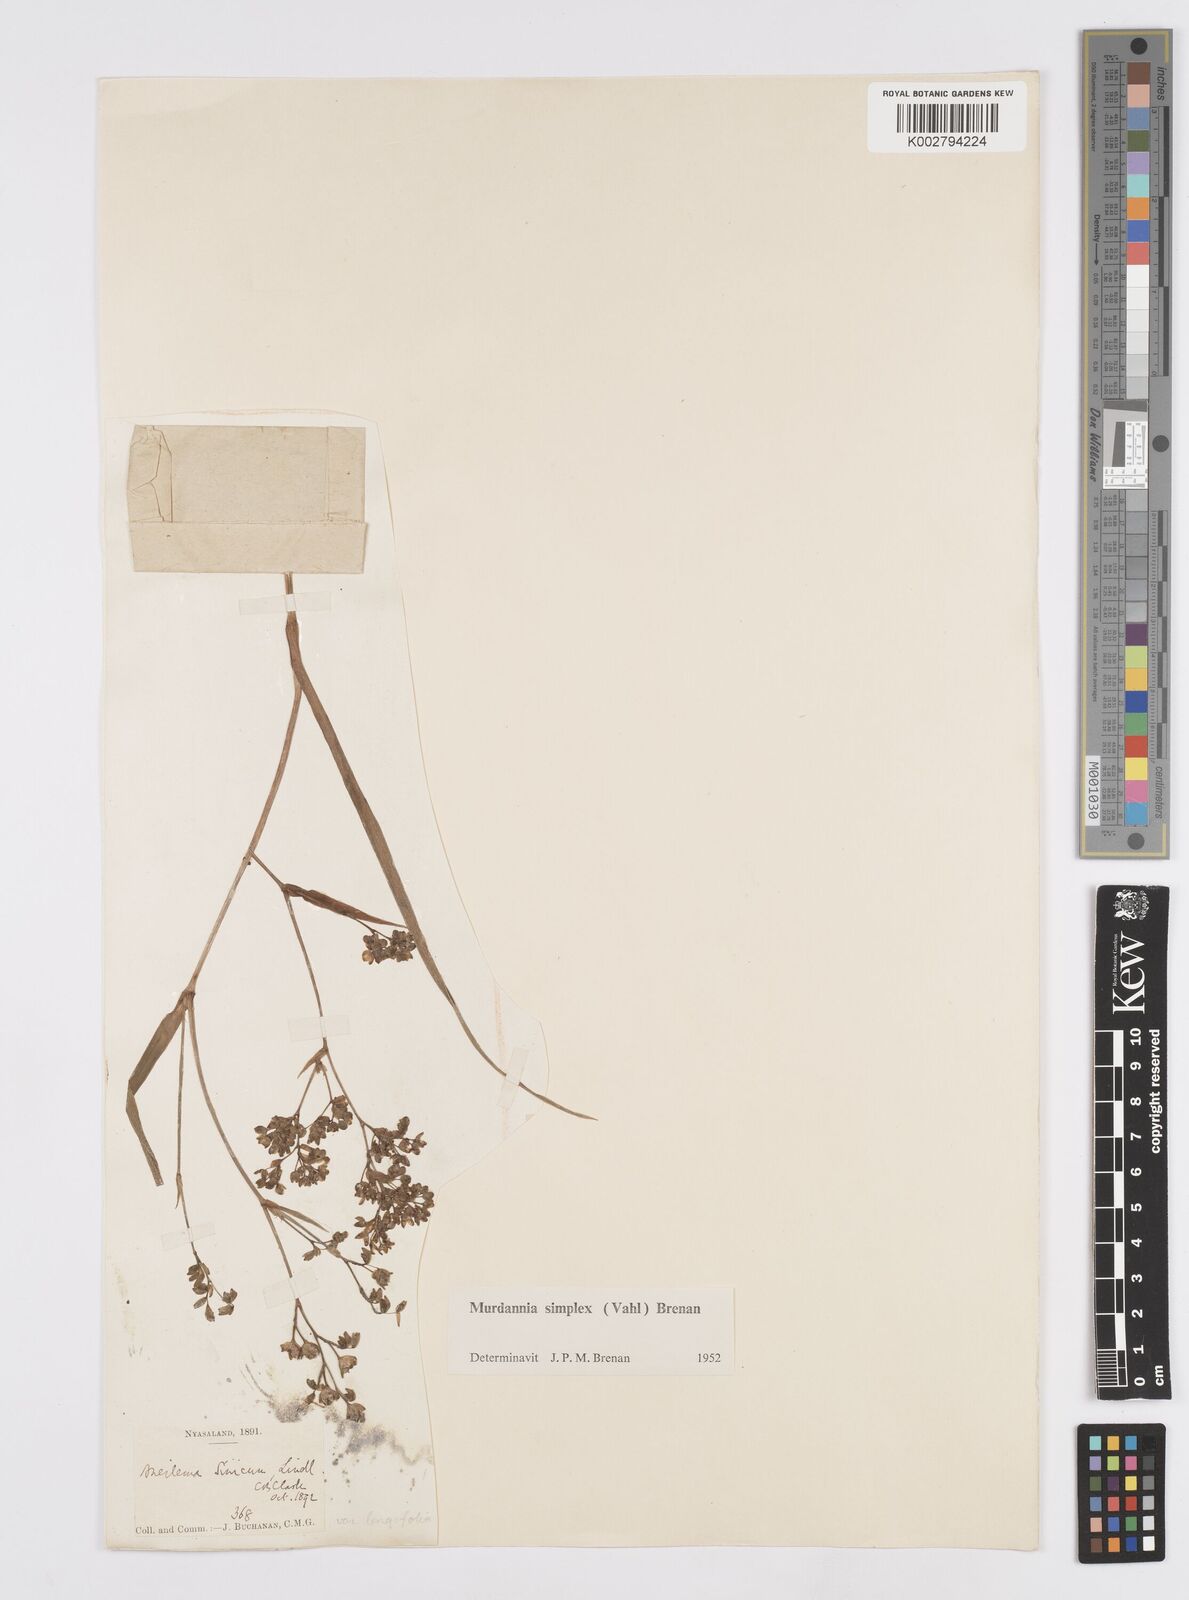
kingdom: Plantae
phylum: Tracheophyta
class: Liliopsida
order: Commelinales
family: Commelinaceae
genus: Murdannia
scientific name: Murdannia simplex
